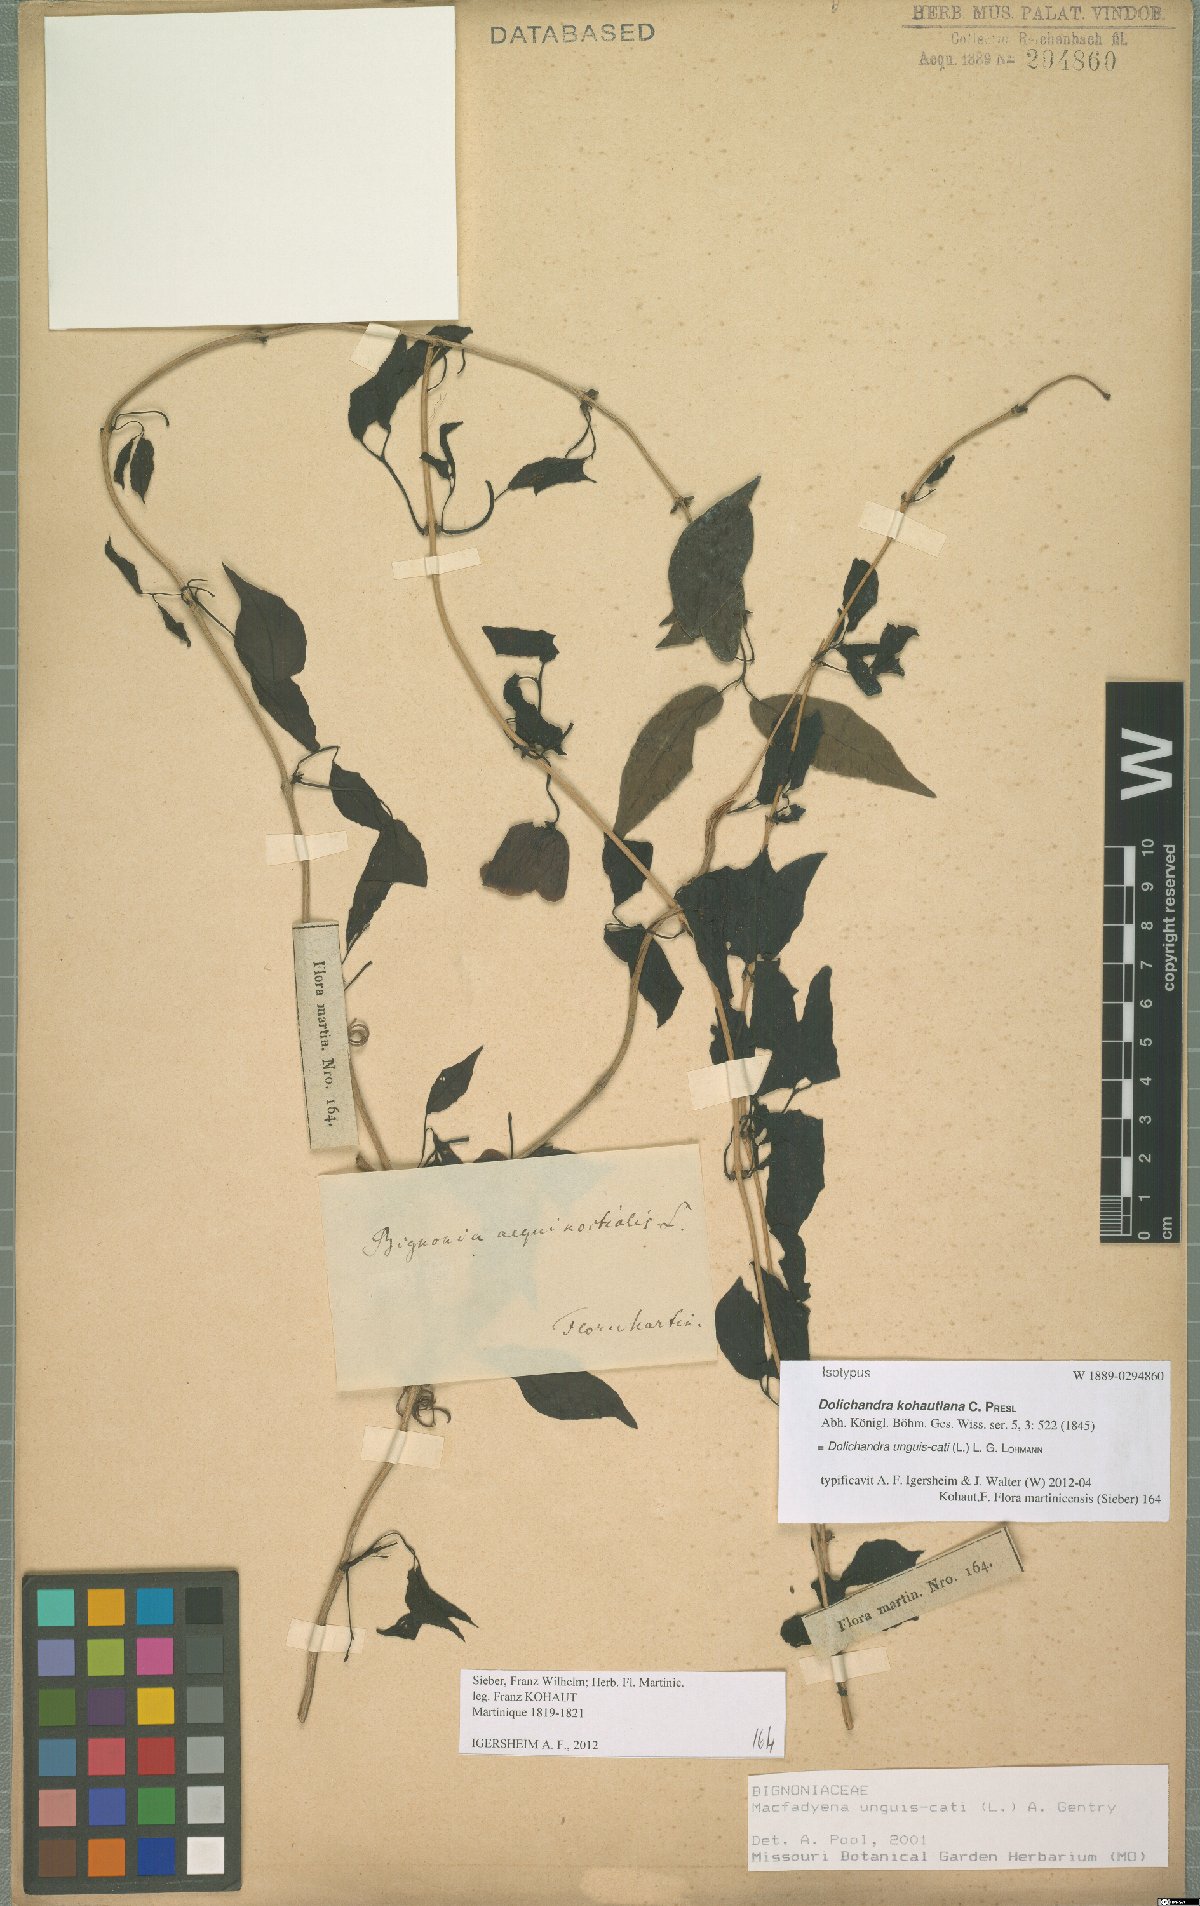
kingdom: Plantae
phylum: Tracheophyta
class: Magnoliopsida
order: Lamiales
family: Bignoniaceae
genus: Dolichandra
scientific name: Dolichandra unguis-cati
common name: Catclaw vine
